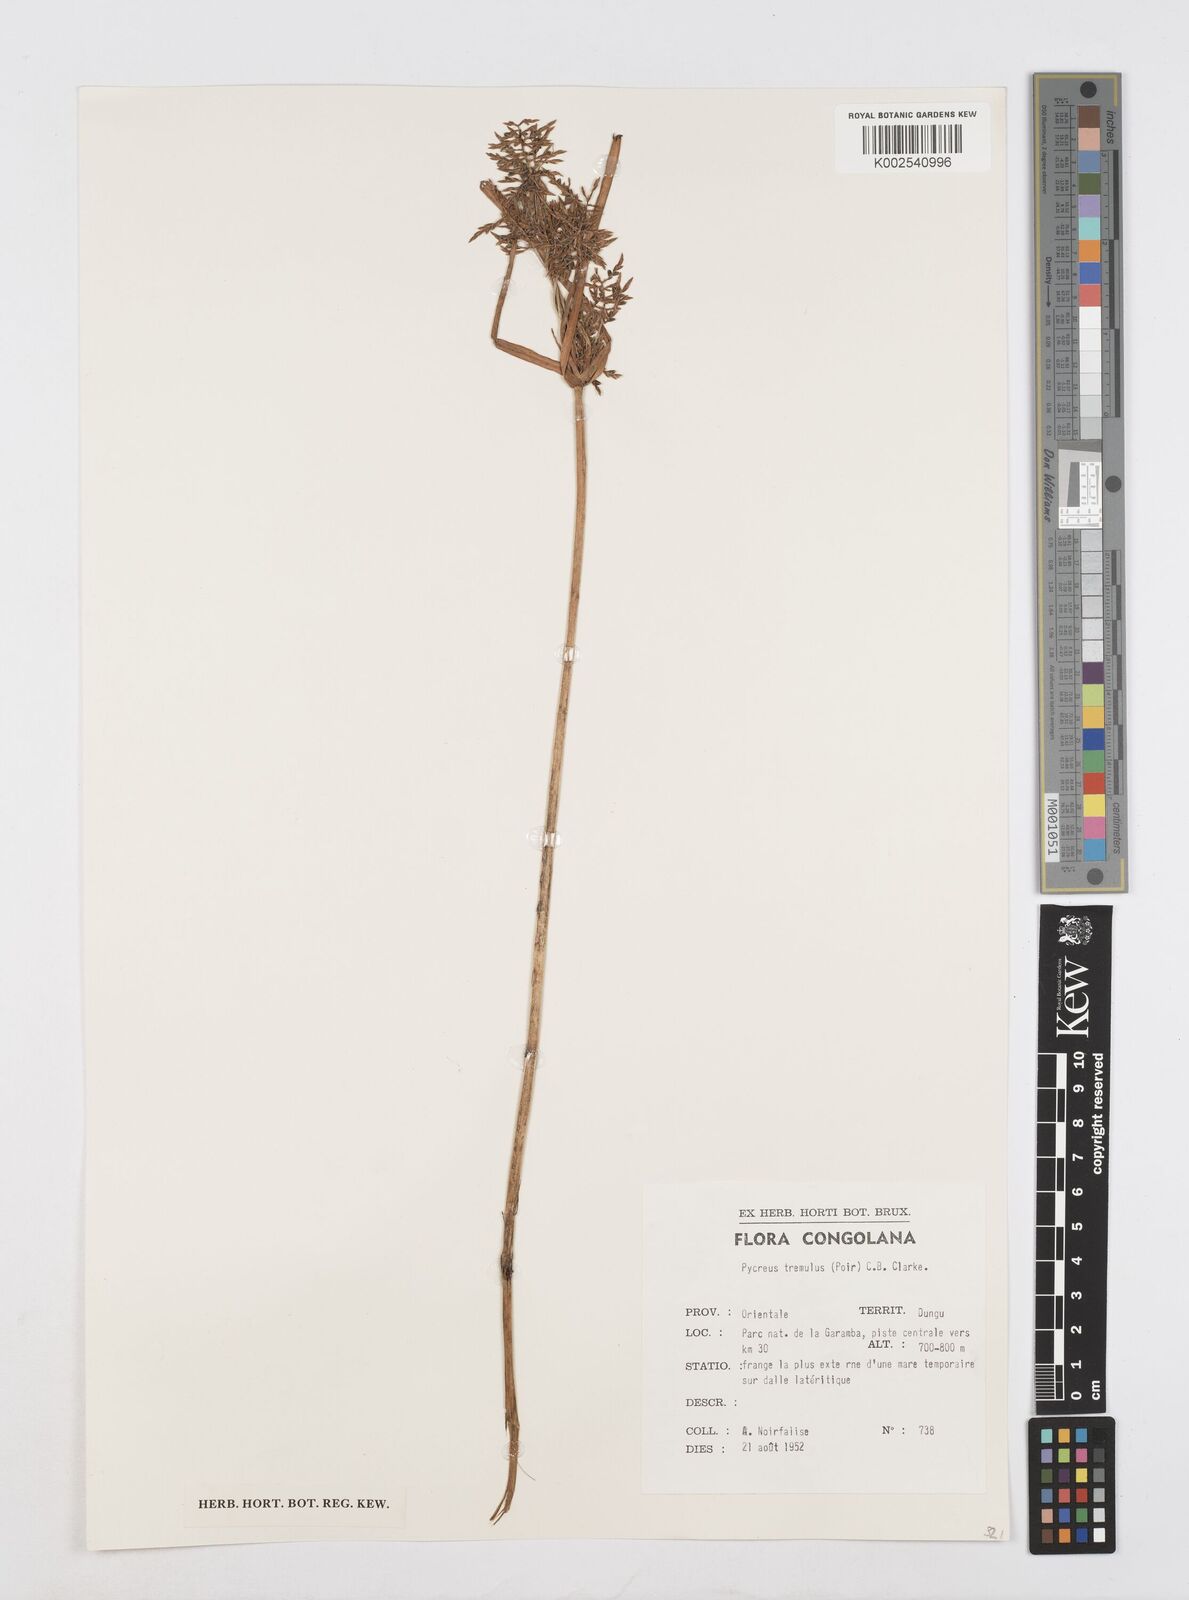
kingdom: Plantae
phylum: Tracheophyta
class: Liliopsida
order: Poales
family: Cyperaceae
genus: Cyperus
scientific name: Cyperus macrostachyos
